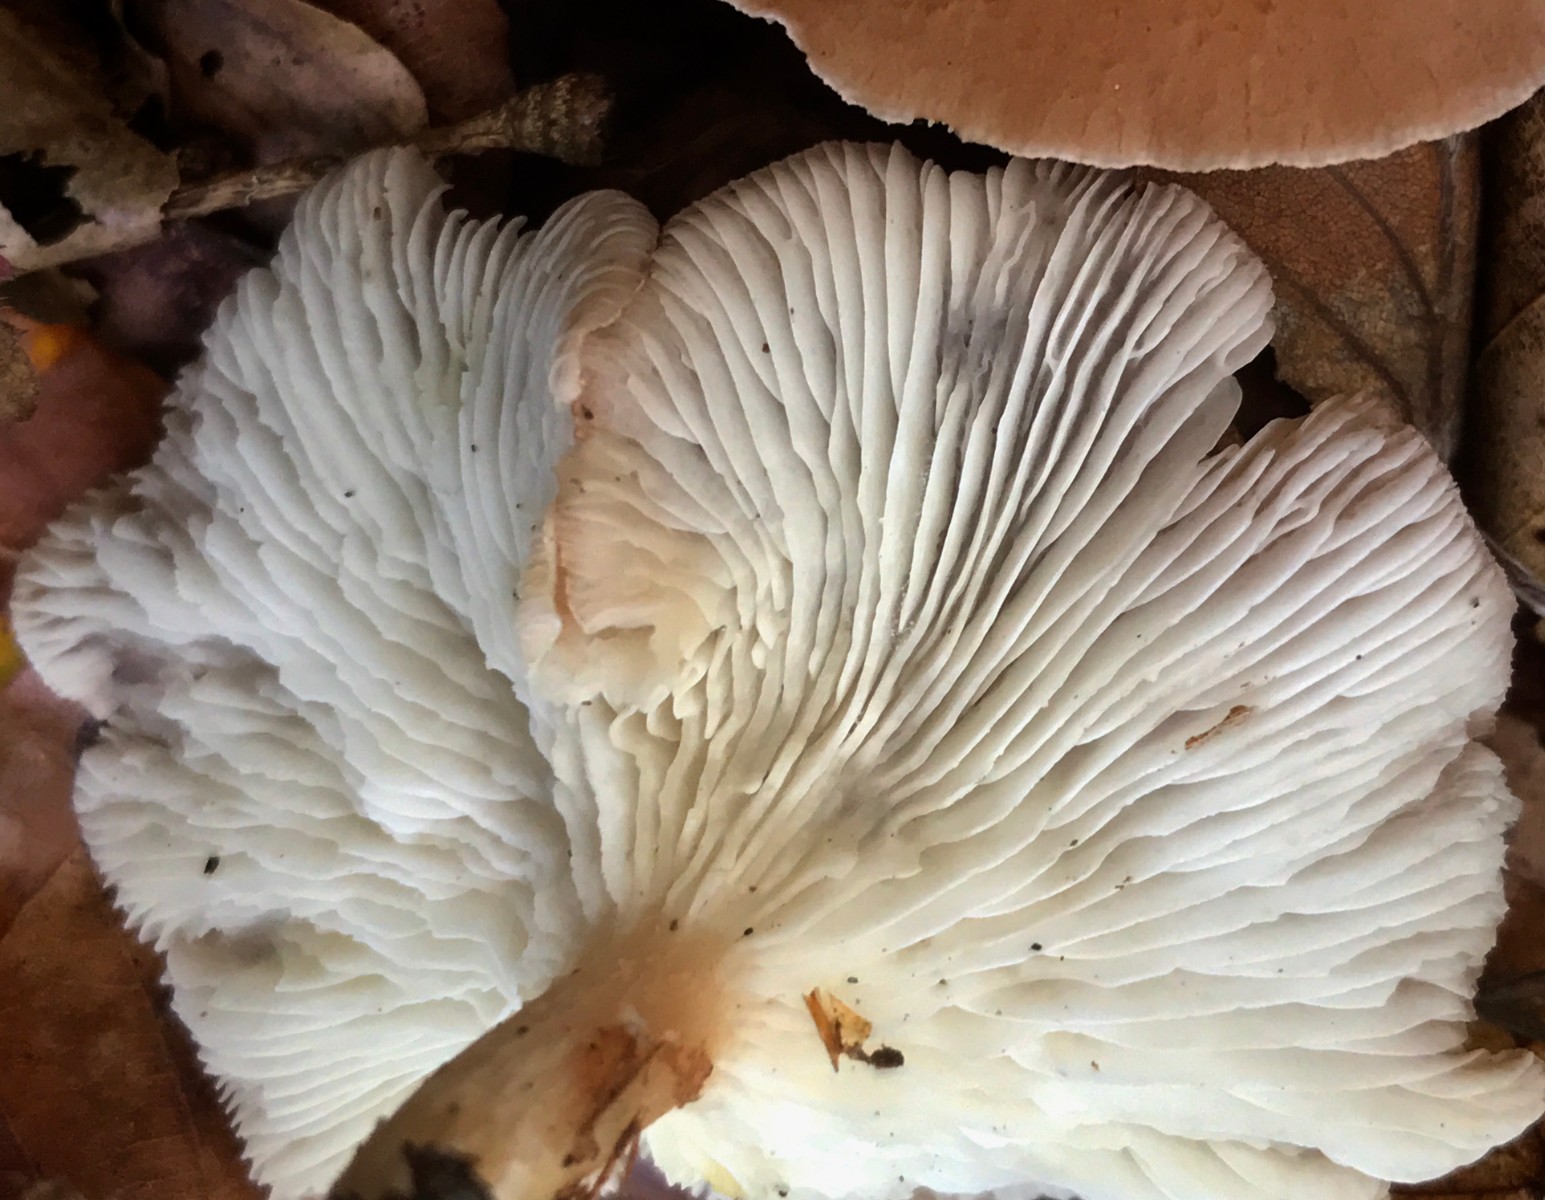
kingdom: Fungi
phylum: Basidiomycota
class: Agaricomycetes
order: Agaricales
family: Tricholomataceae
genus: Infundibulicybe
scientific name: Infundibulicybe gibba
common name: almindelig tragthat
